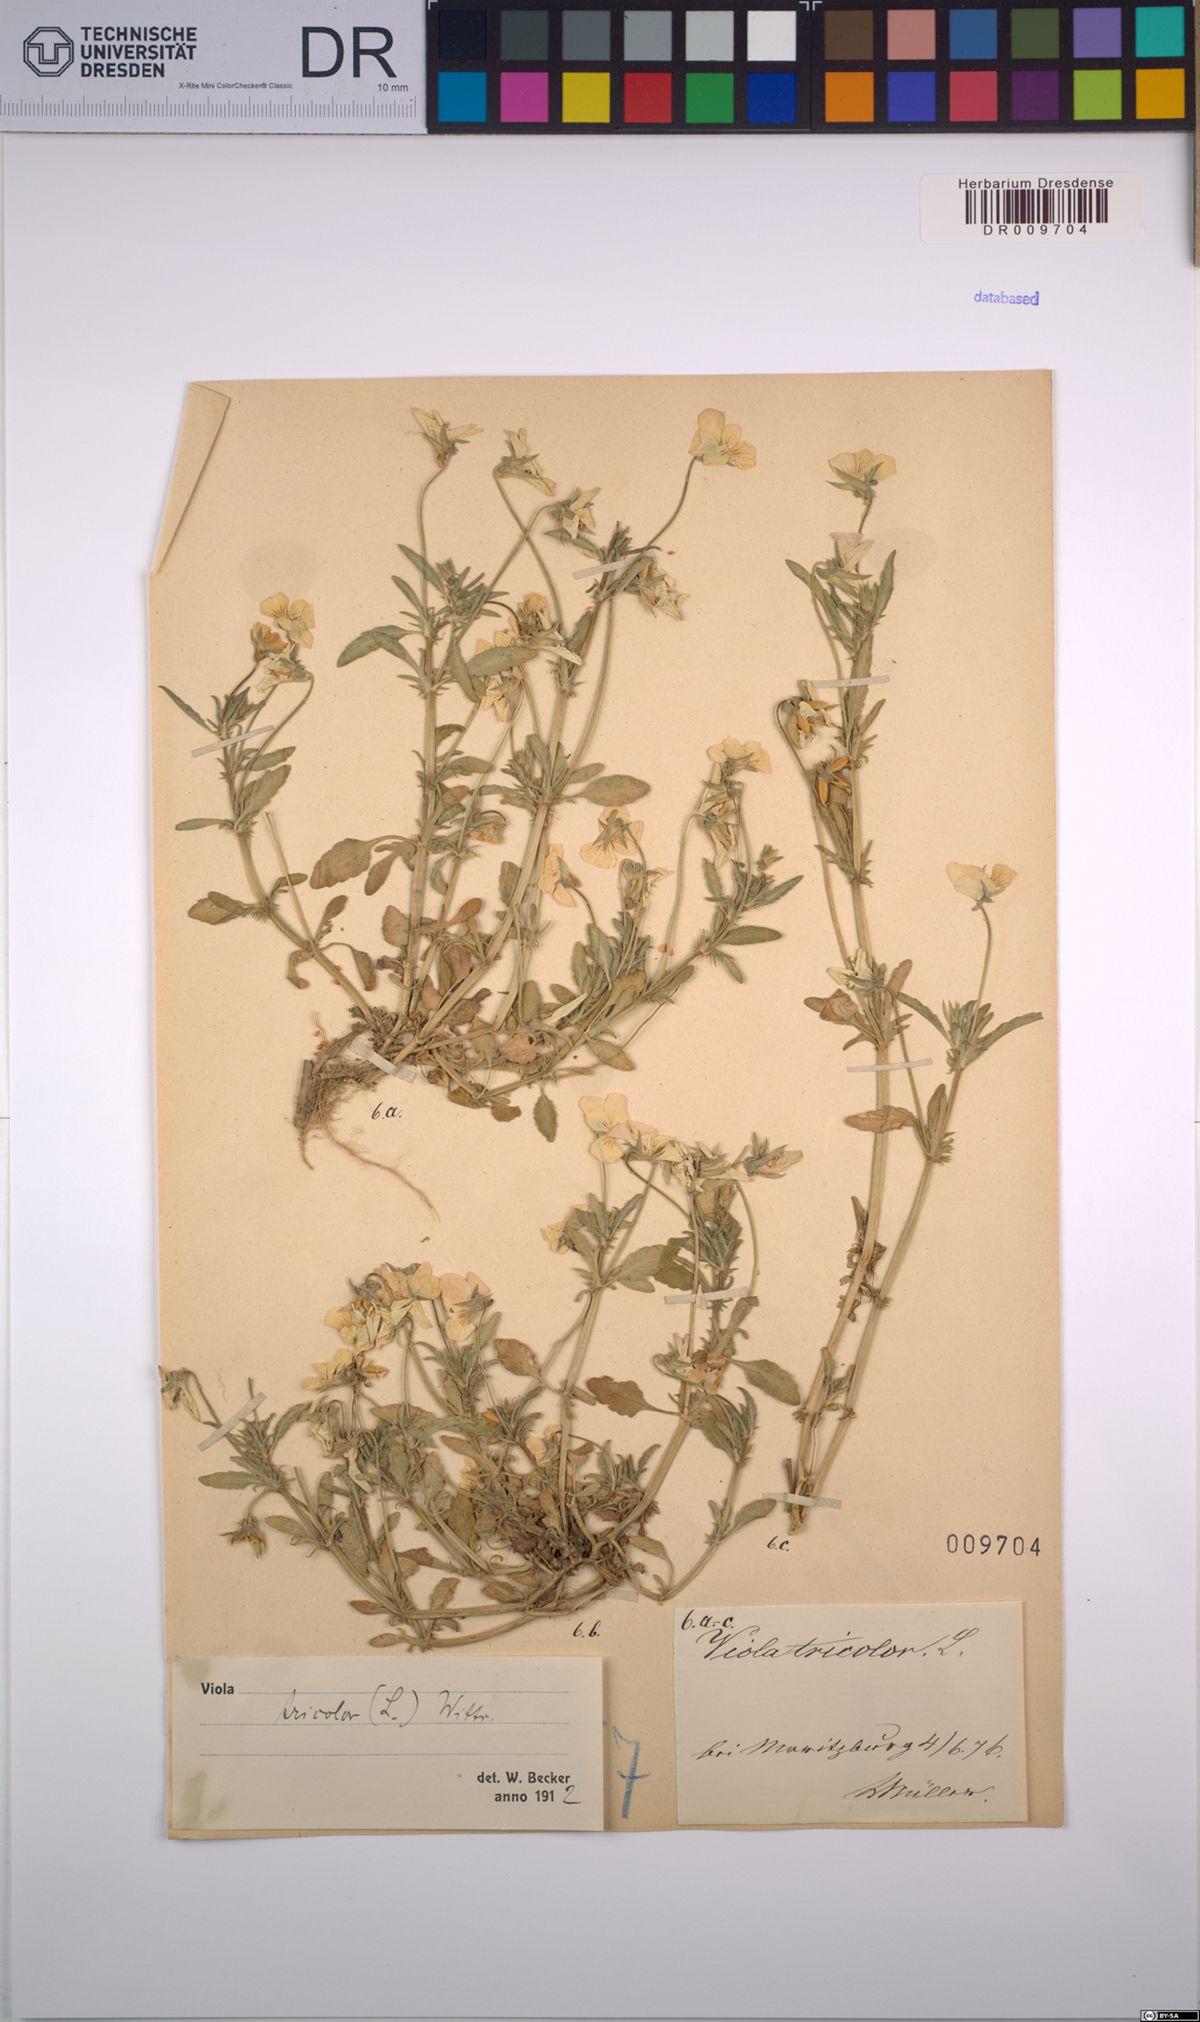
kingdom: Plantae
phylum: Tracheophyta
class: Magnoliopsida
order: Malpighiales
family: Violaceae
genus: Viola
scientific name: Viola tricolor
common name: Pansy
